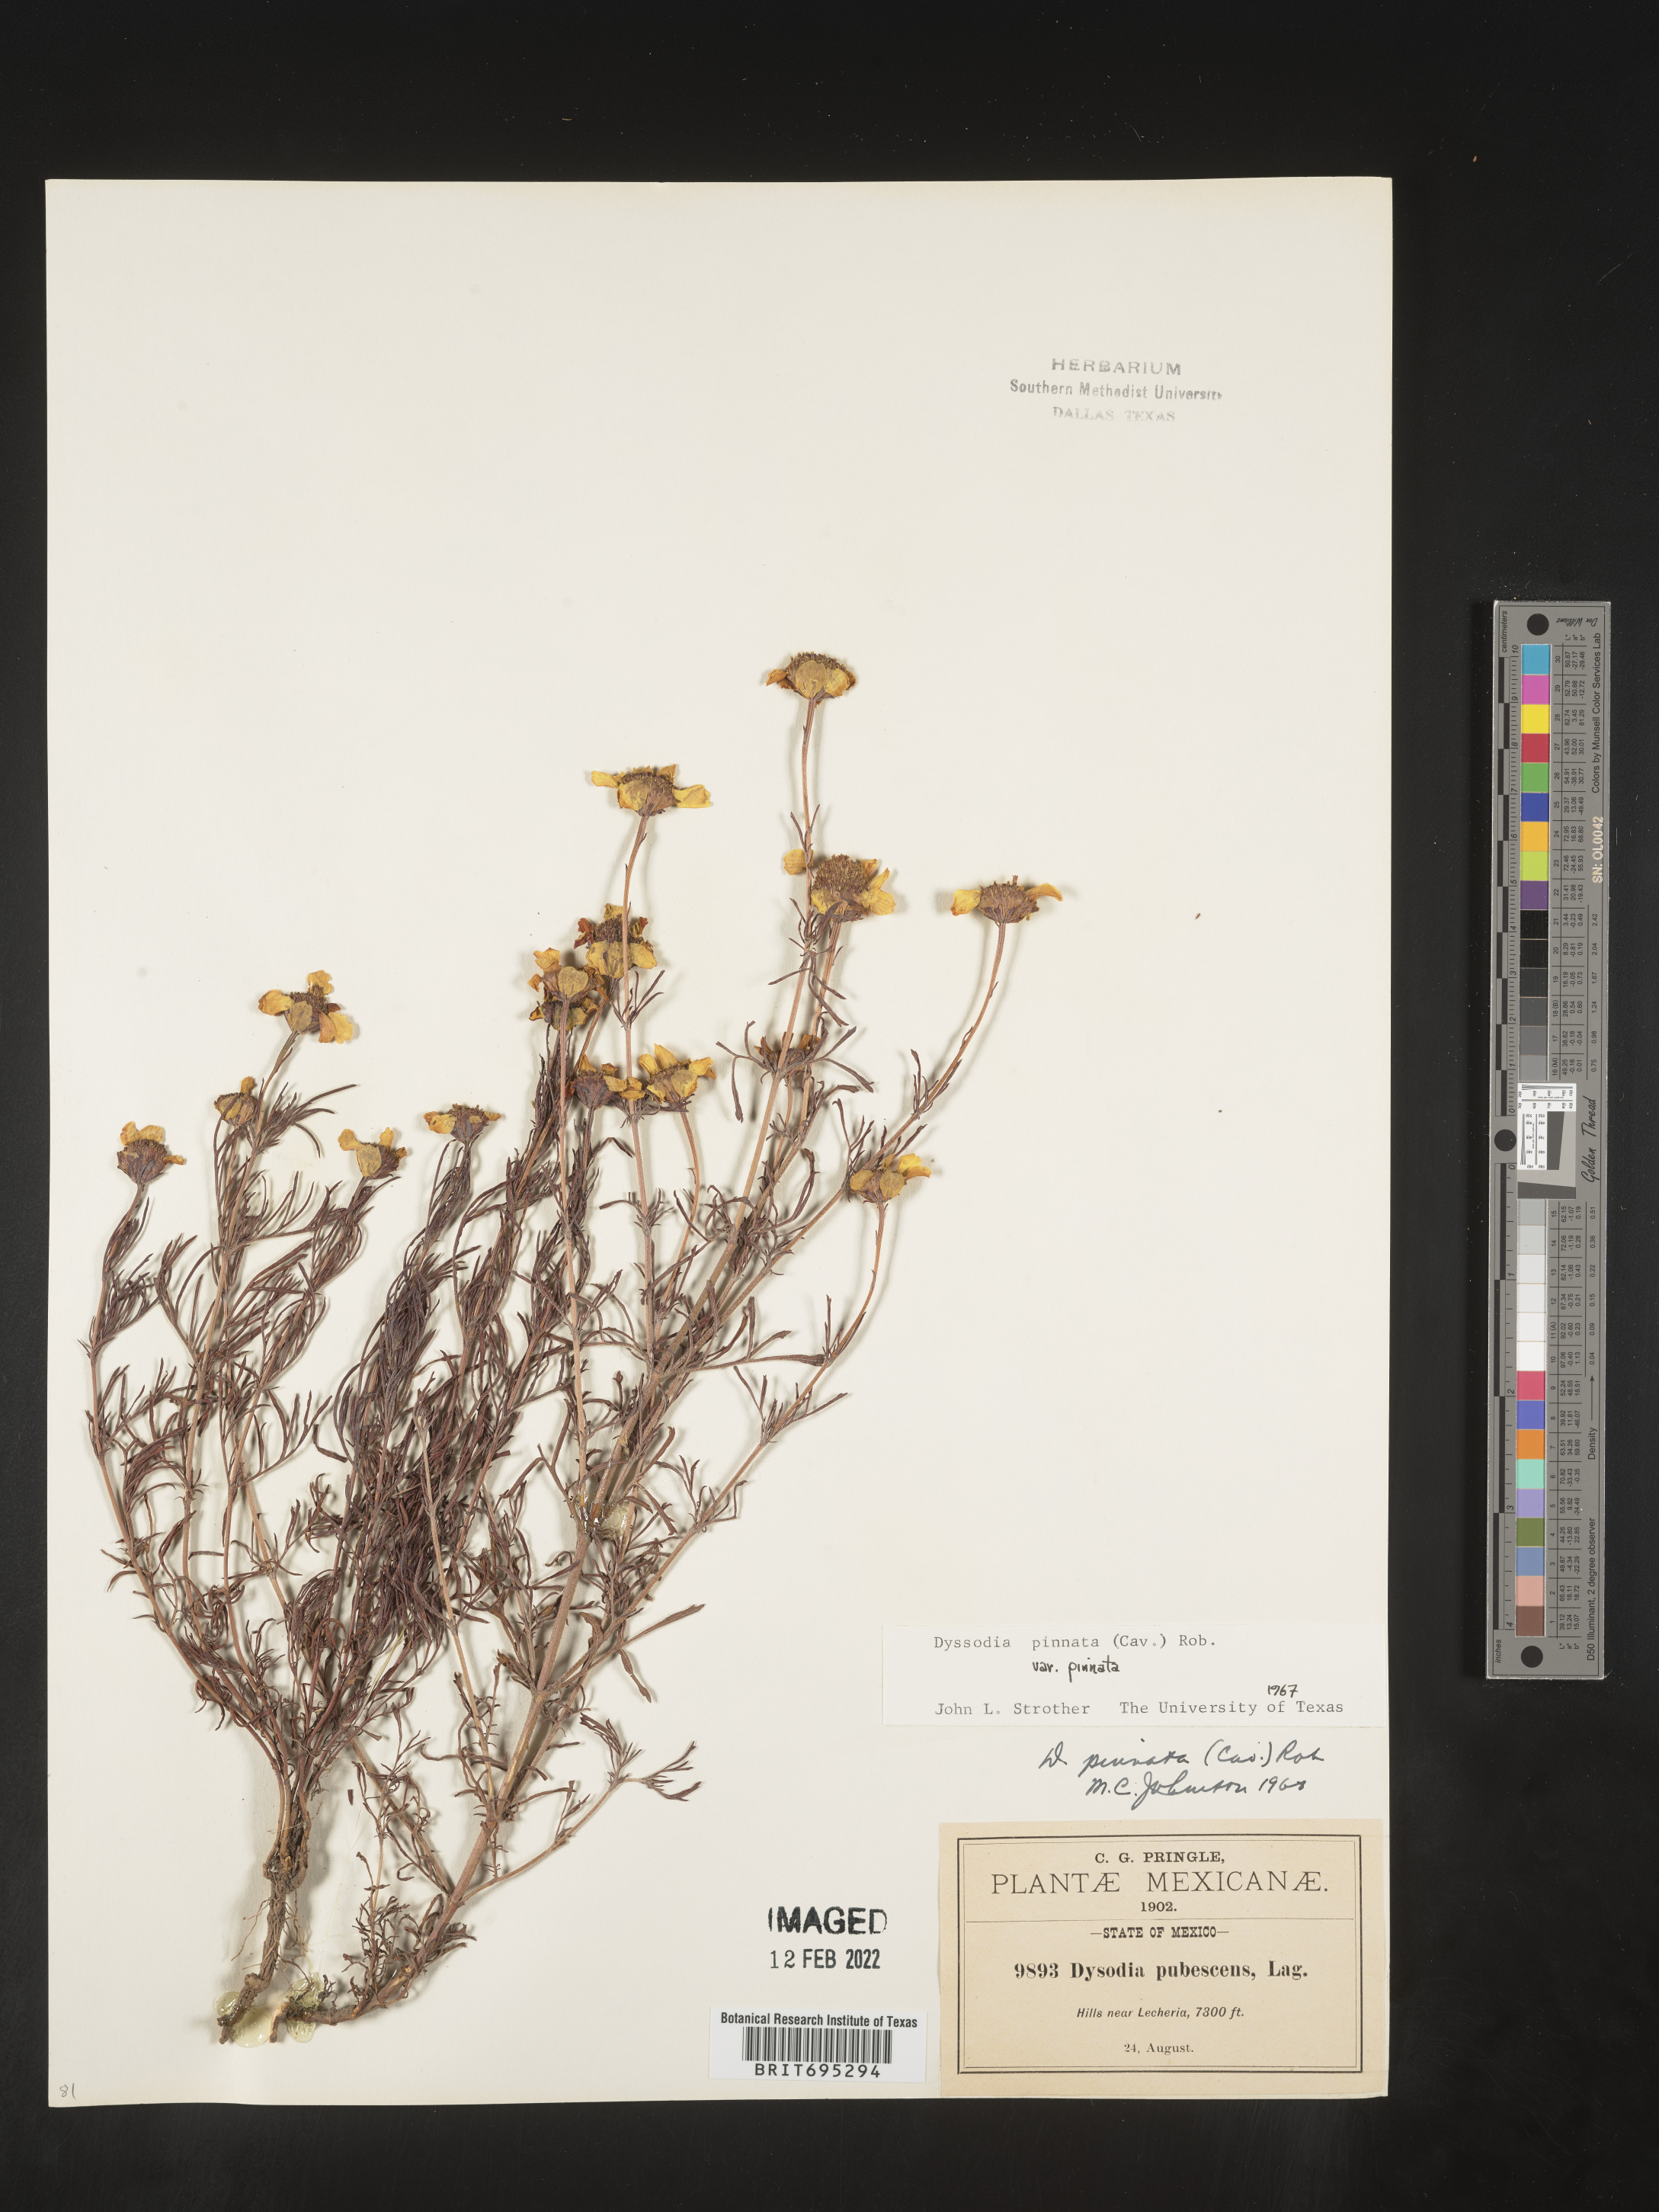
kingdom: Plantae
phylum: Tracheophyta
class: Magnoliopsida
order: Asterales
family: Asteraceae
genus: Dyssodia
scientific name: Dyssodia
